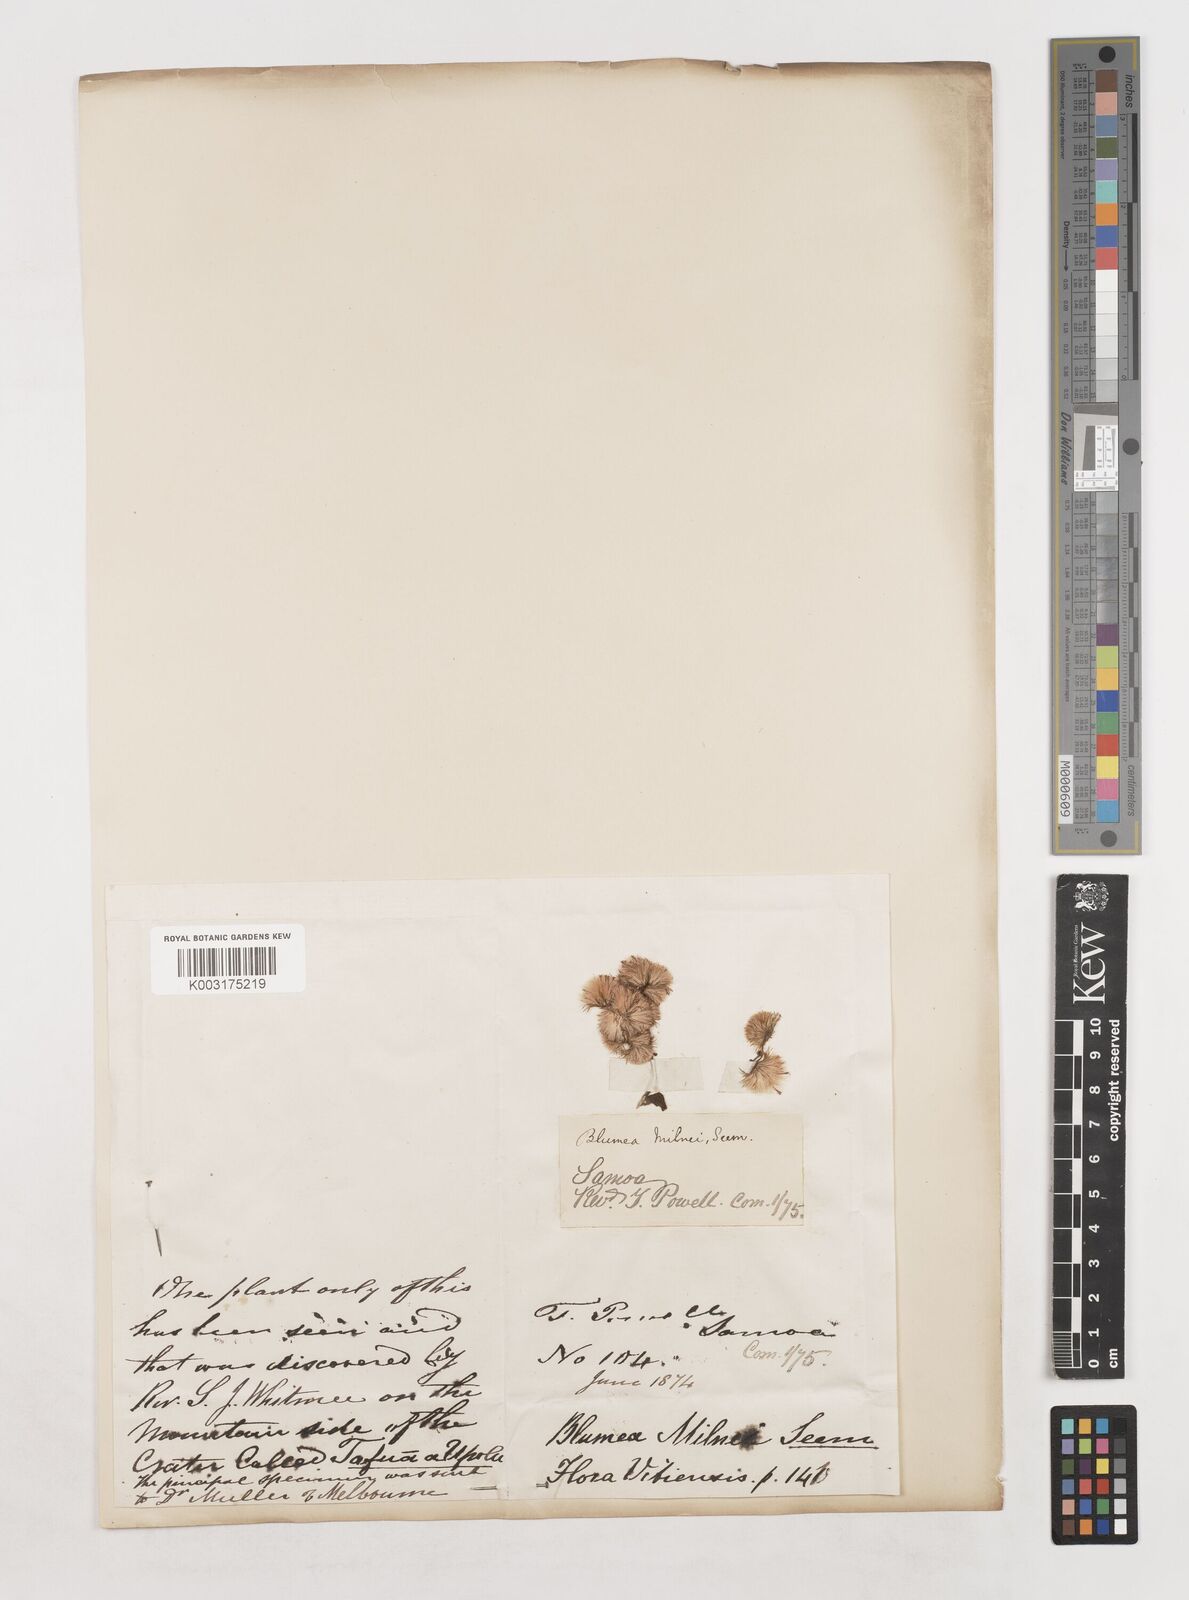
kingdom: Plantae
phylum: Tracheophyta
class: Magnoliopsida
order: Asterales
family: Asteraceae
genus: Blumea
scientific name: Blumea
